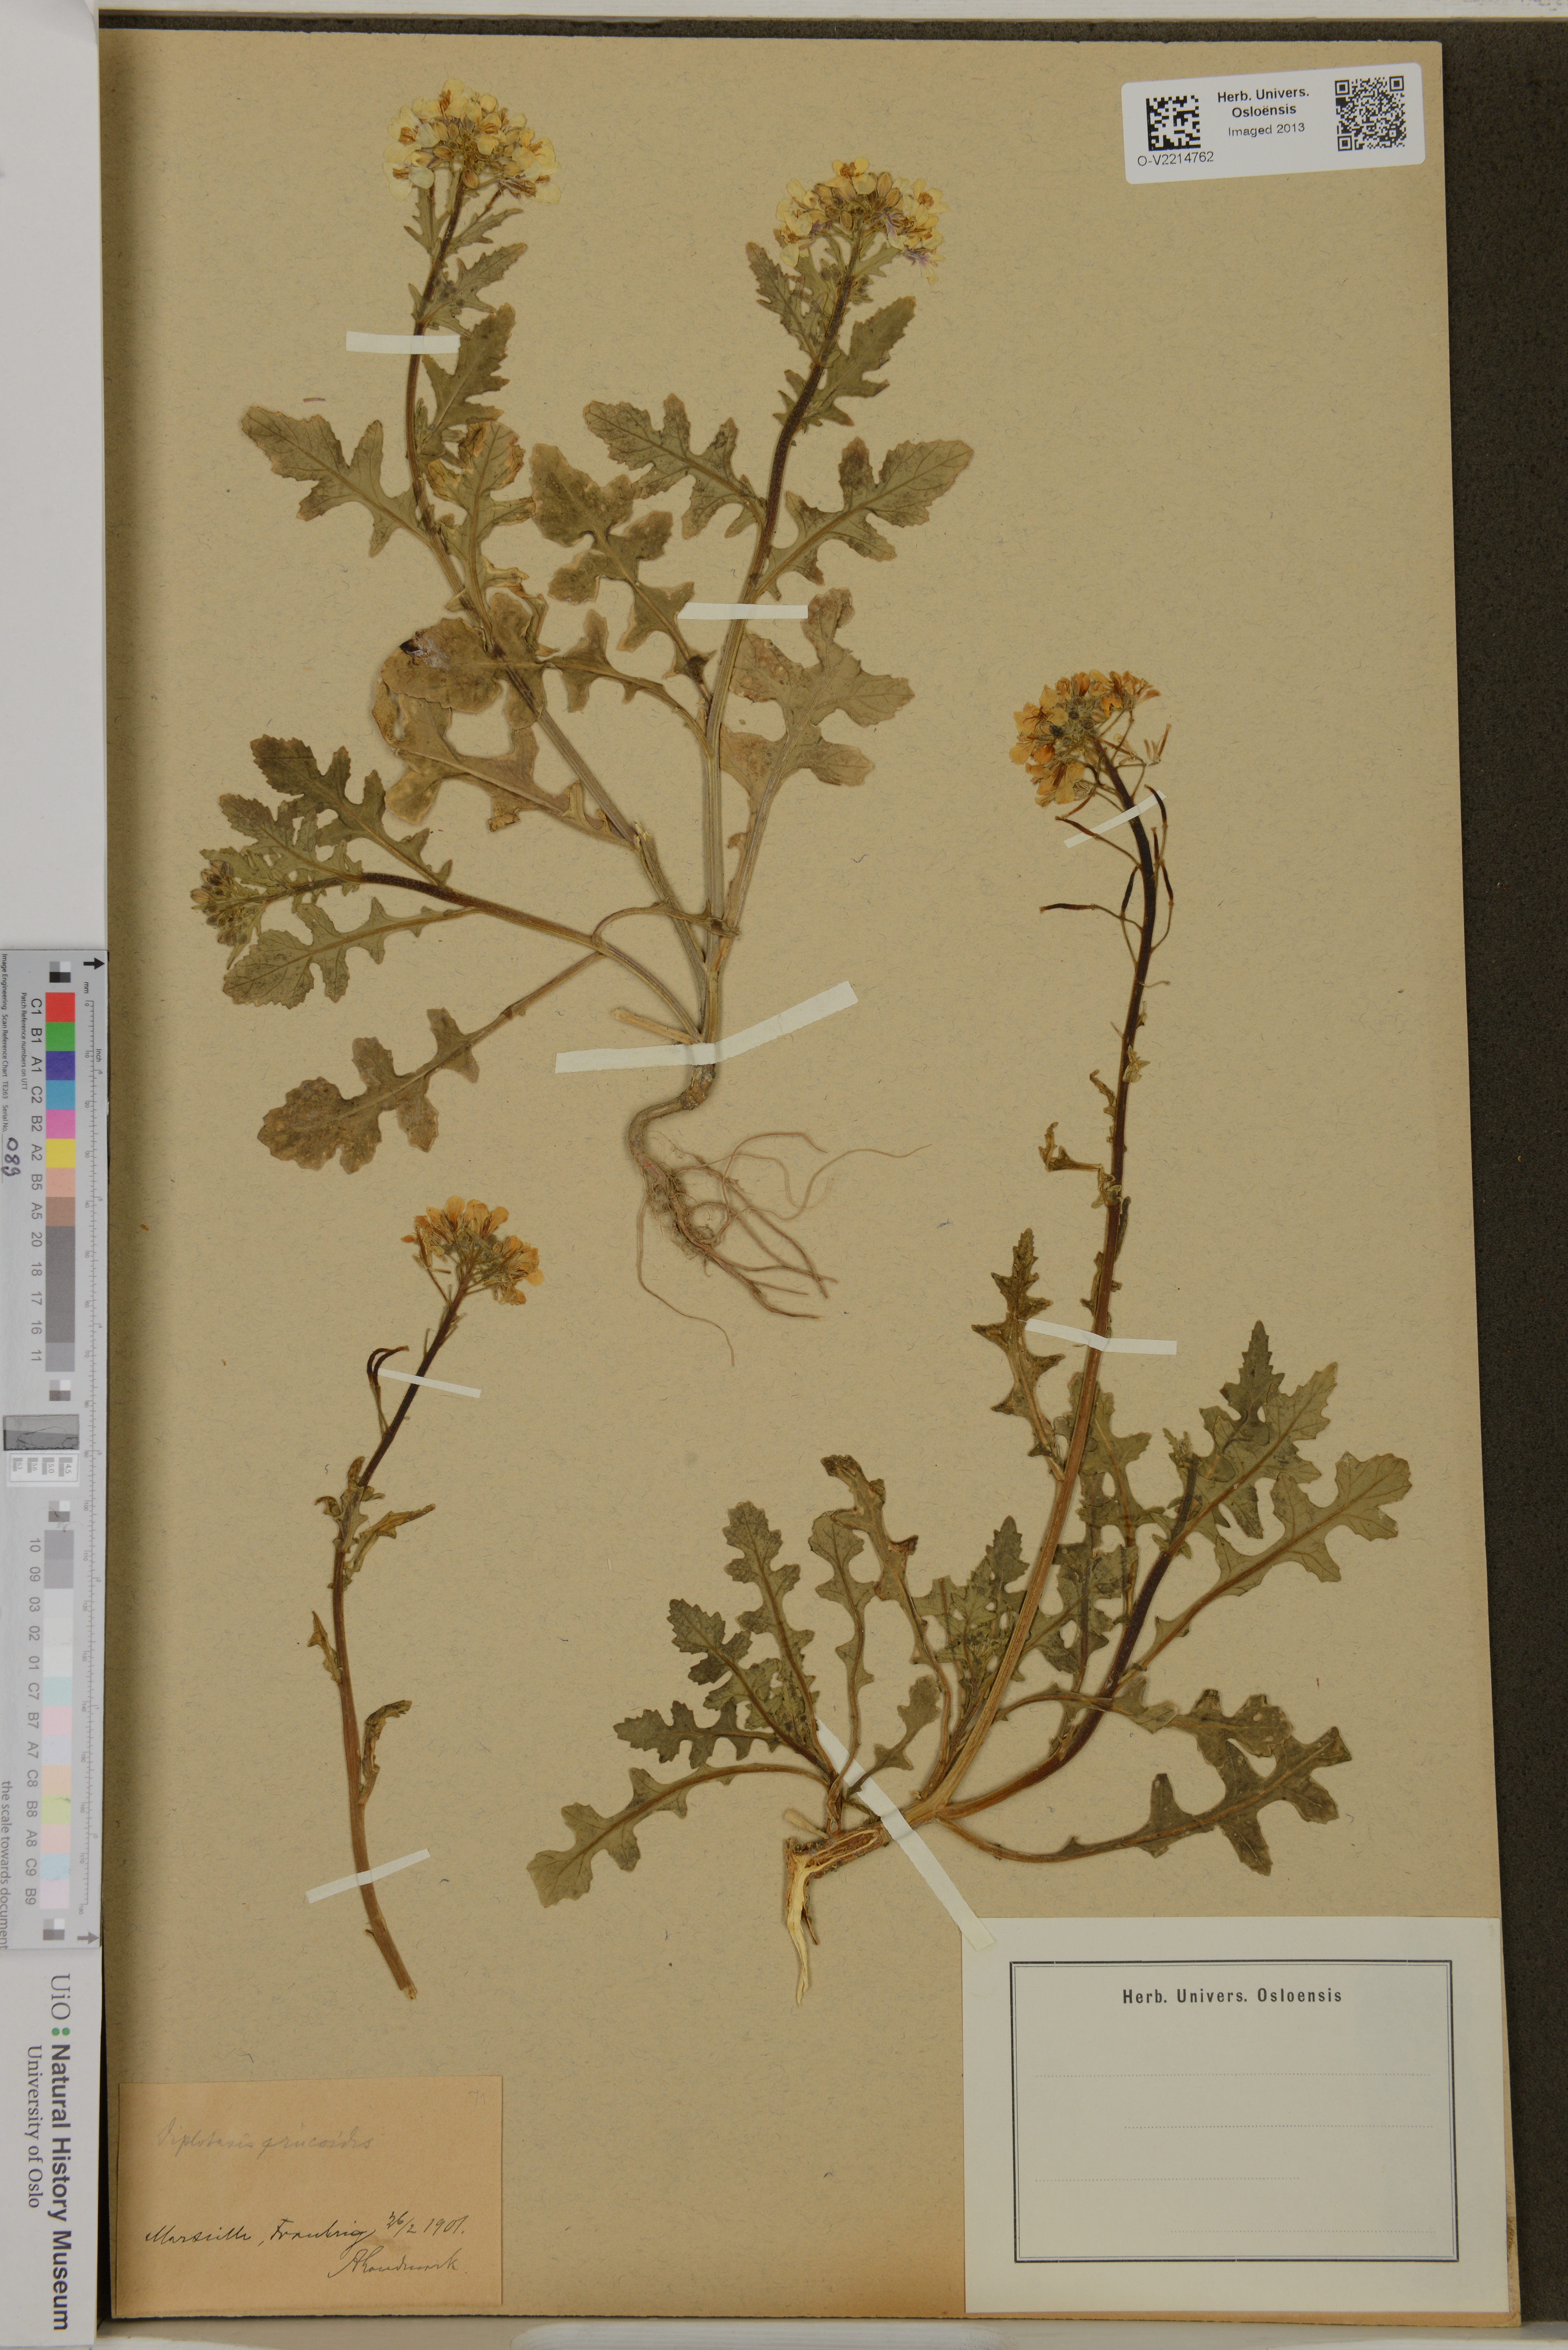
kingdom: Plantae
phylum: Tracheophyta
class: Magnoliopsida
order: Brassicales
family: Brassicaceae
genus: Diplotaxis
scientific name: Diplotaxis erucoides
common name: White rocket
